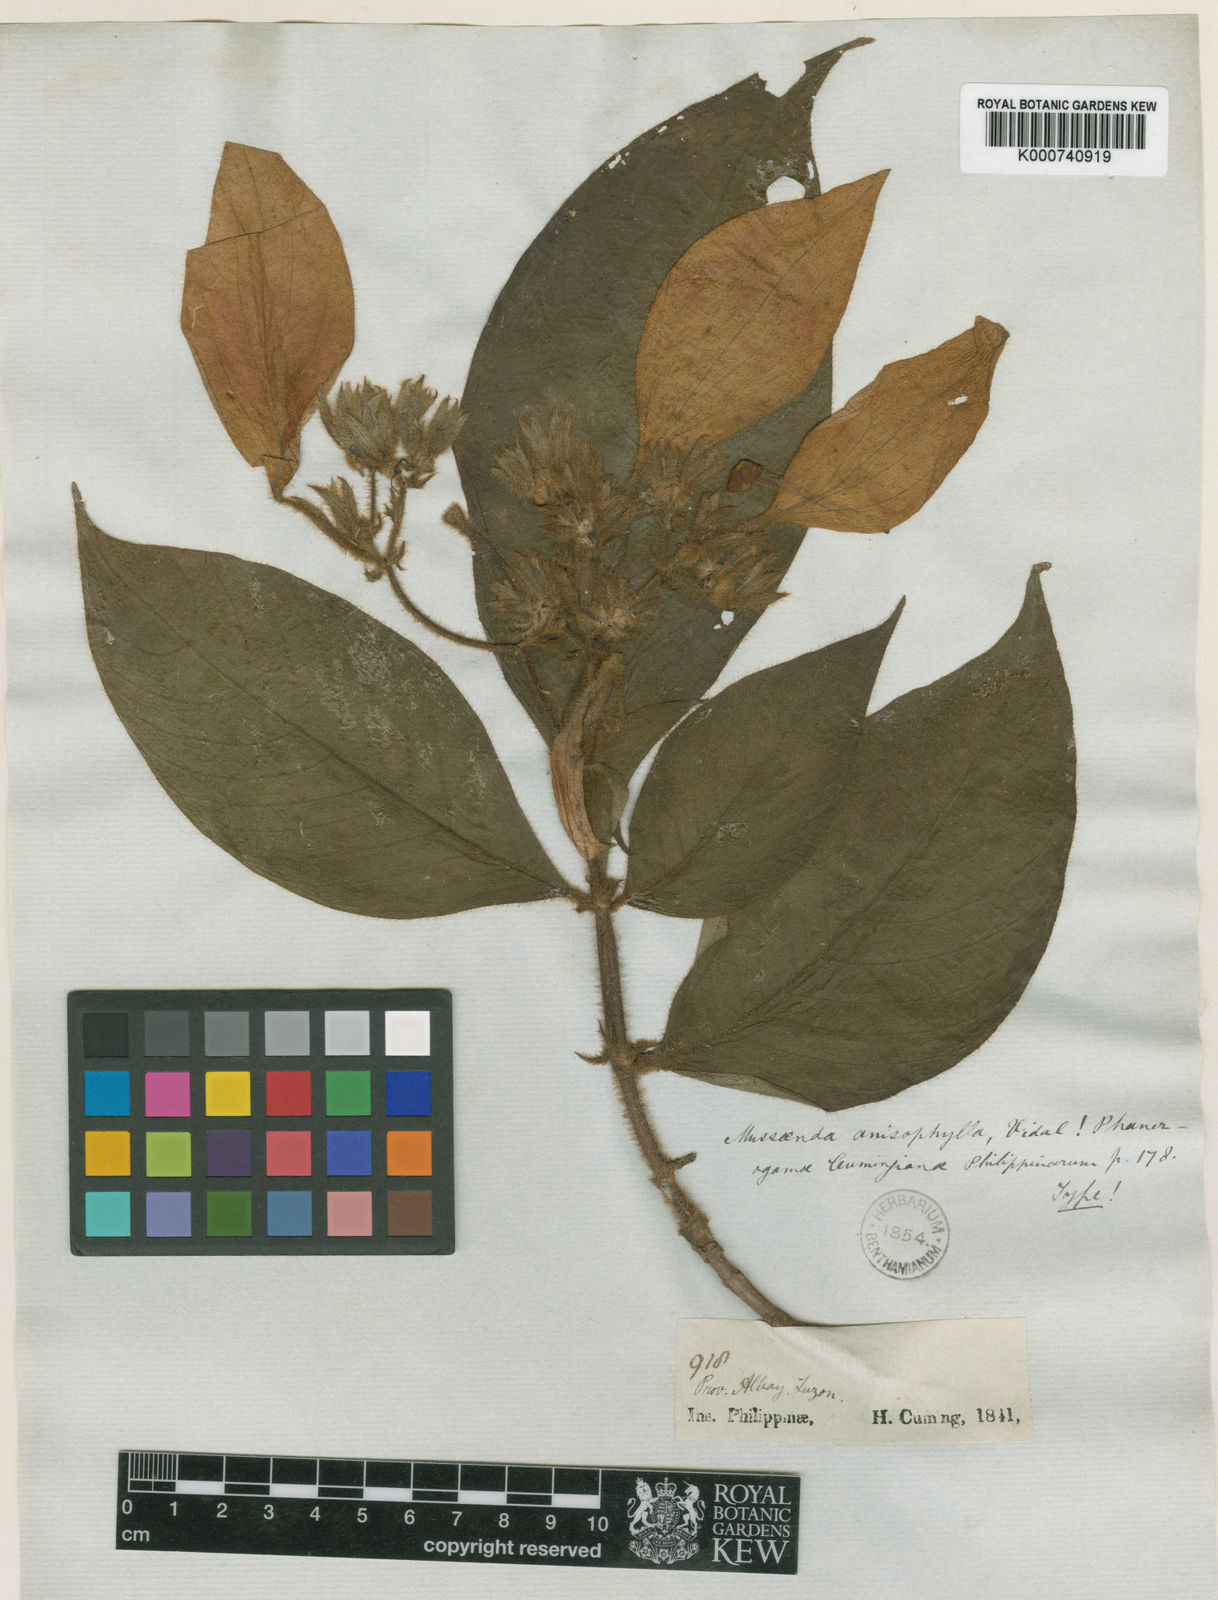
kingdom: Plantae
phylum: Tracheophyta
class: Magnoliopsida
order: Gentianales
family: Rubiaceae
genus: Mussaenda
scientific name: Mussaenda anisophylla
